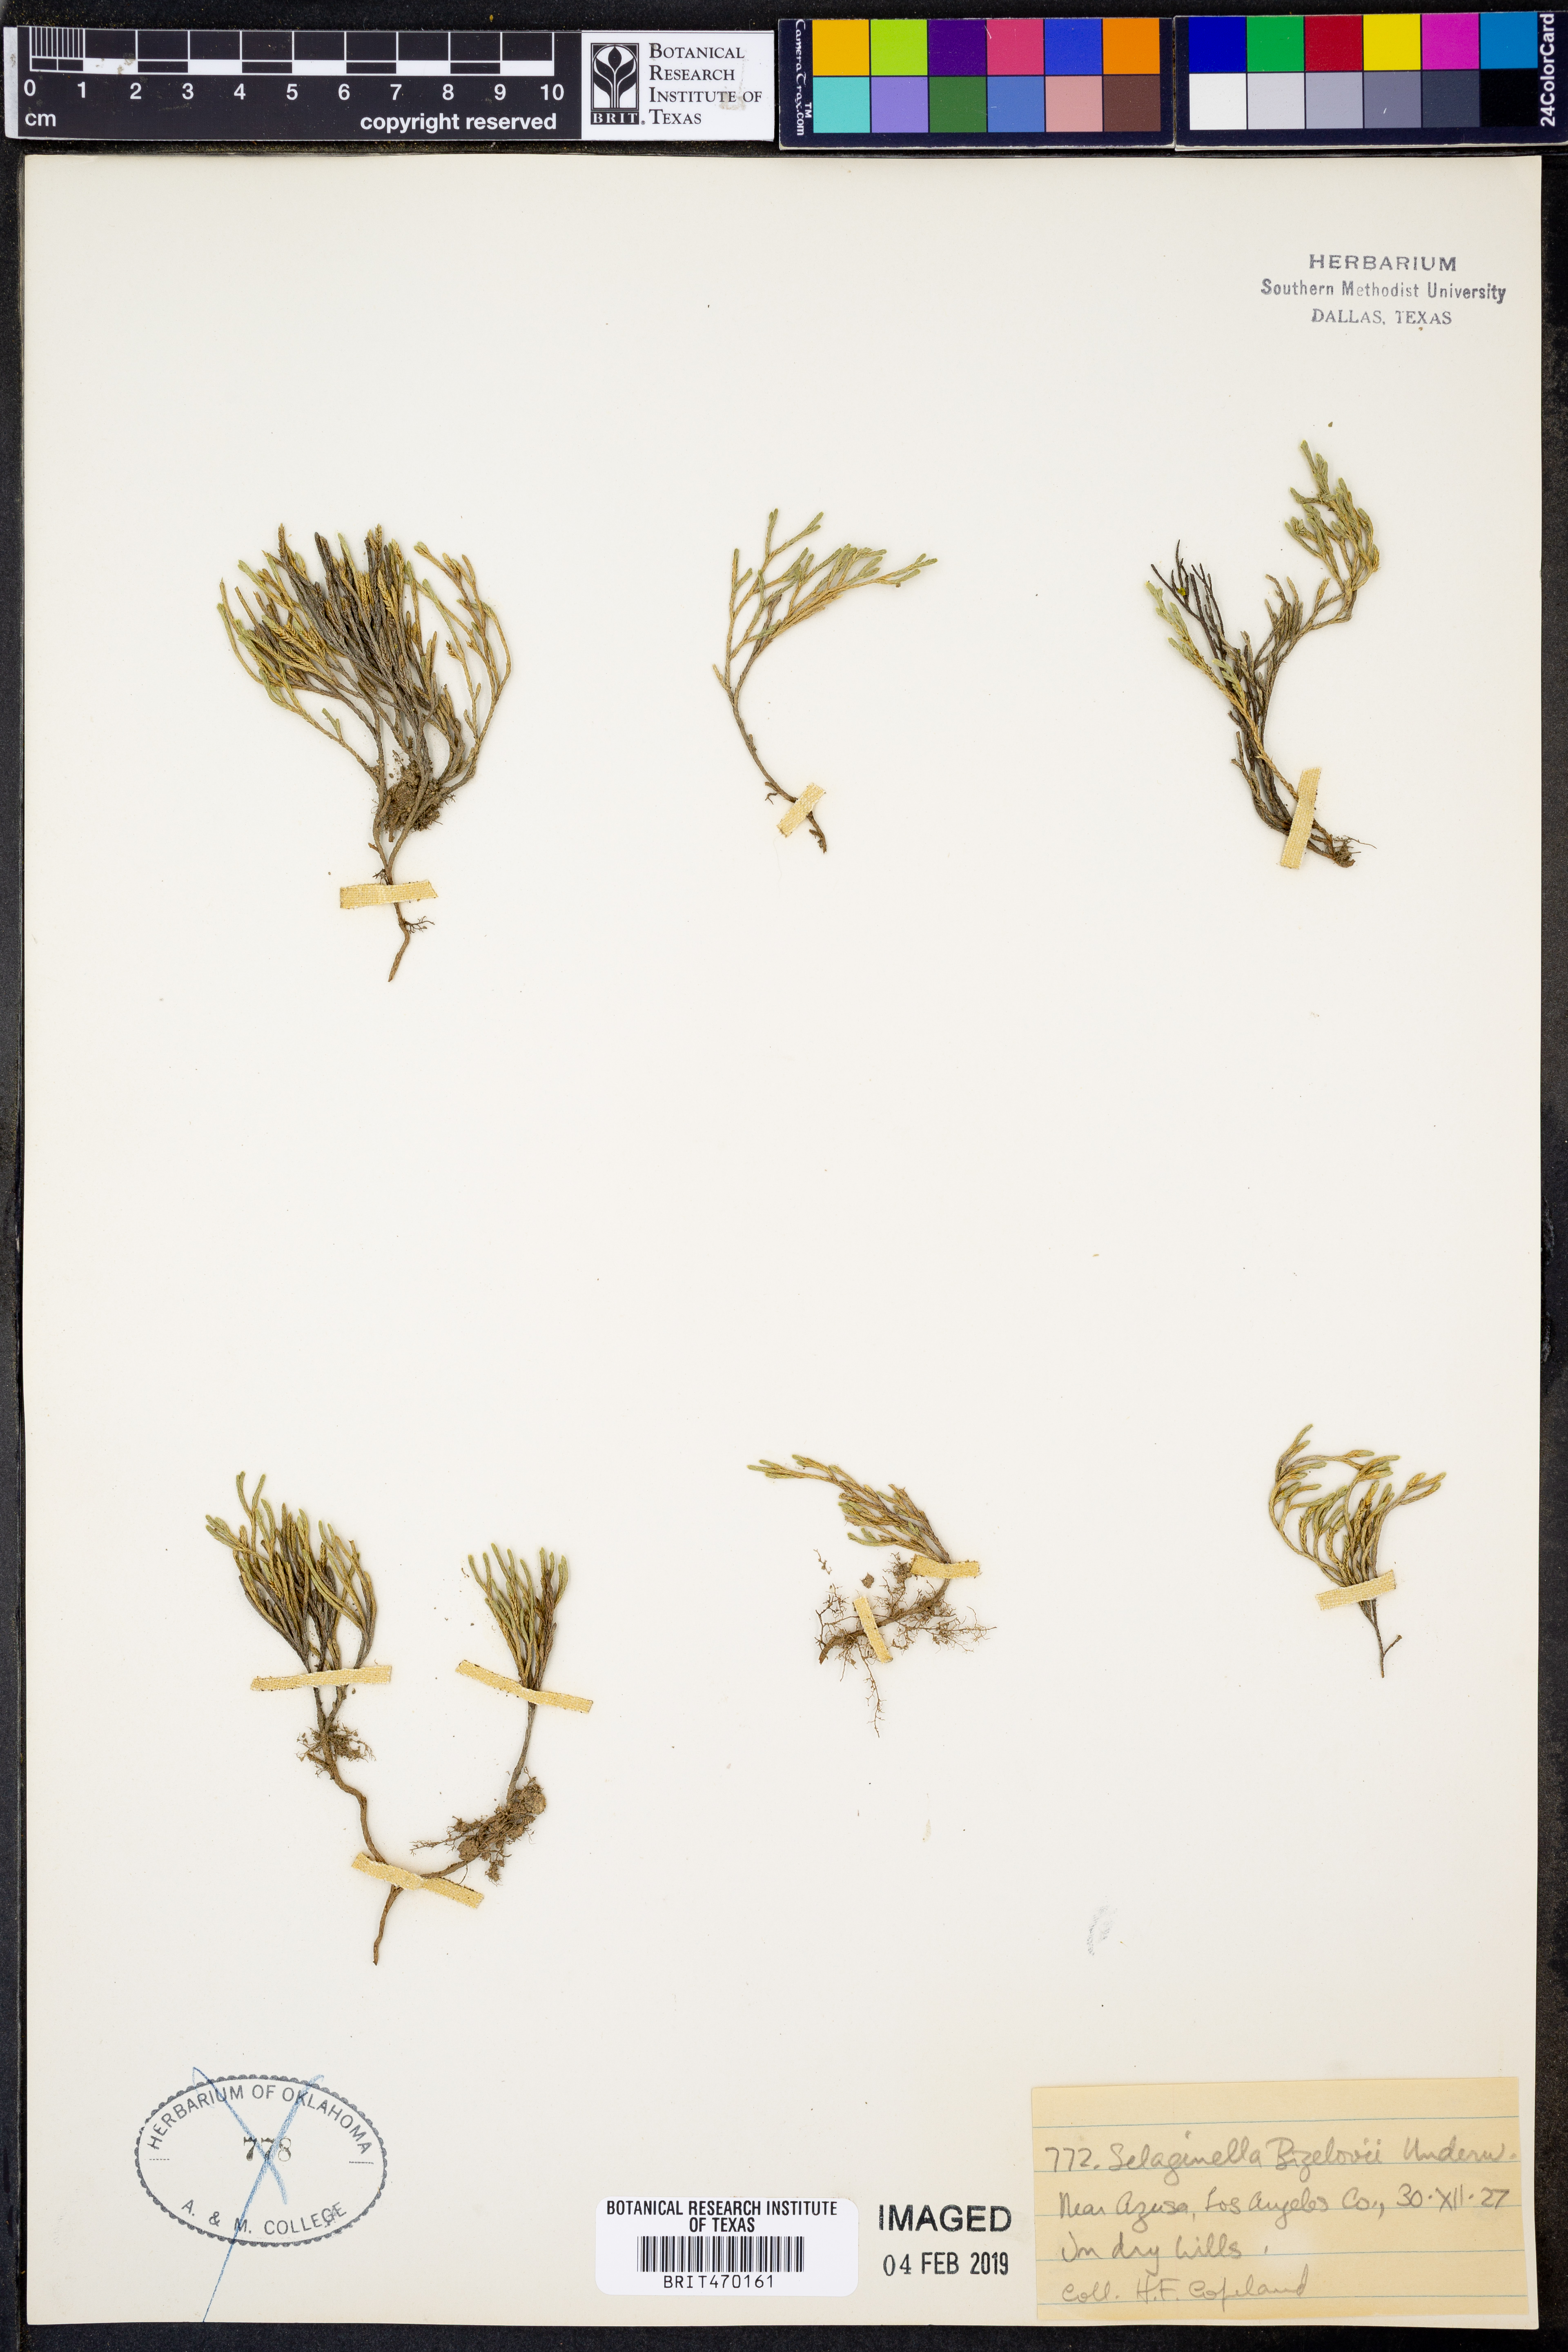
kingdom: Plantae
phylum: Tracheophyta
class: Lycopodiopsida
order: Selaginellales
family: Selaginellaceae
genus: Selaginella
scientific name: Selaginella bigelovii
